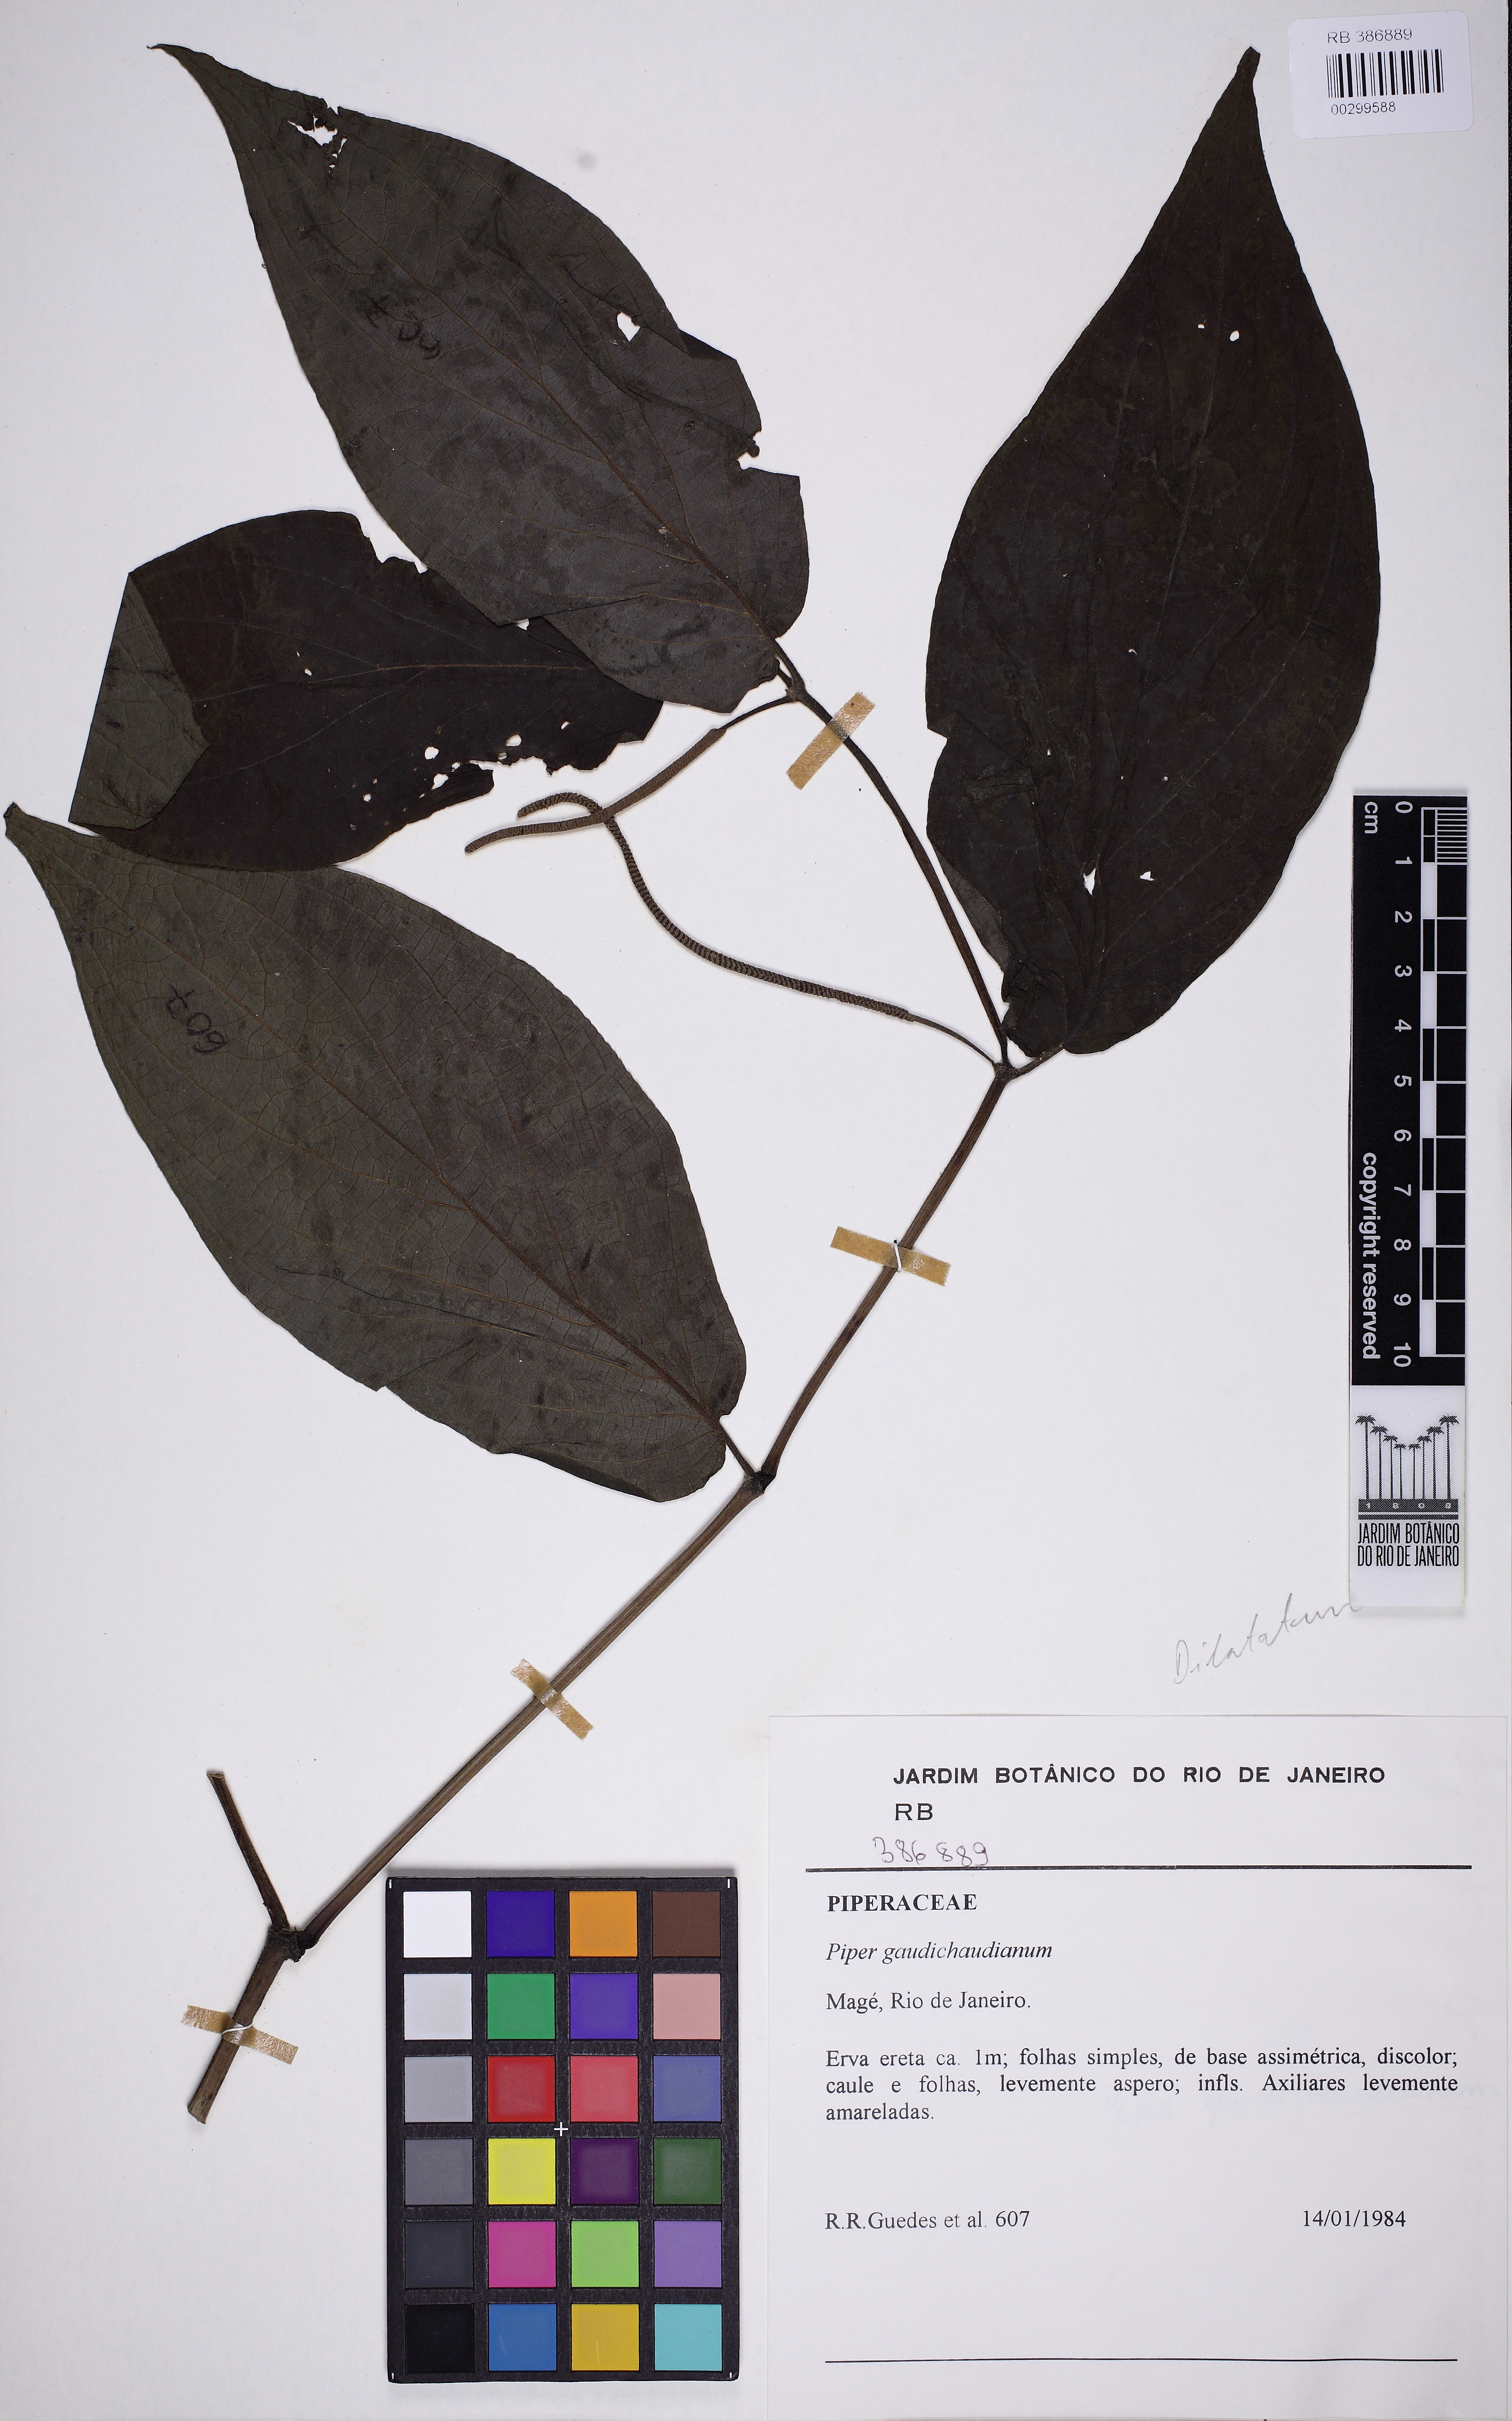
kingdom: Plantae
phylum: Tracheophyta
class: Magnoliopsida
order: Piperales
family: Piperaceae
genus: Piper
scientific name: Piper gaudichaudianum
